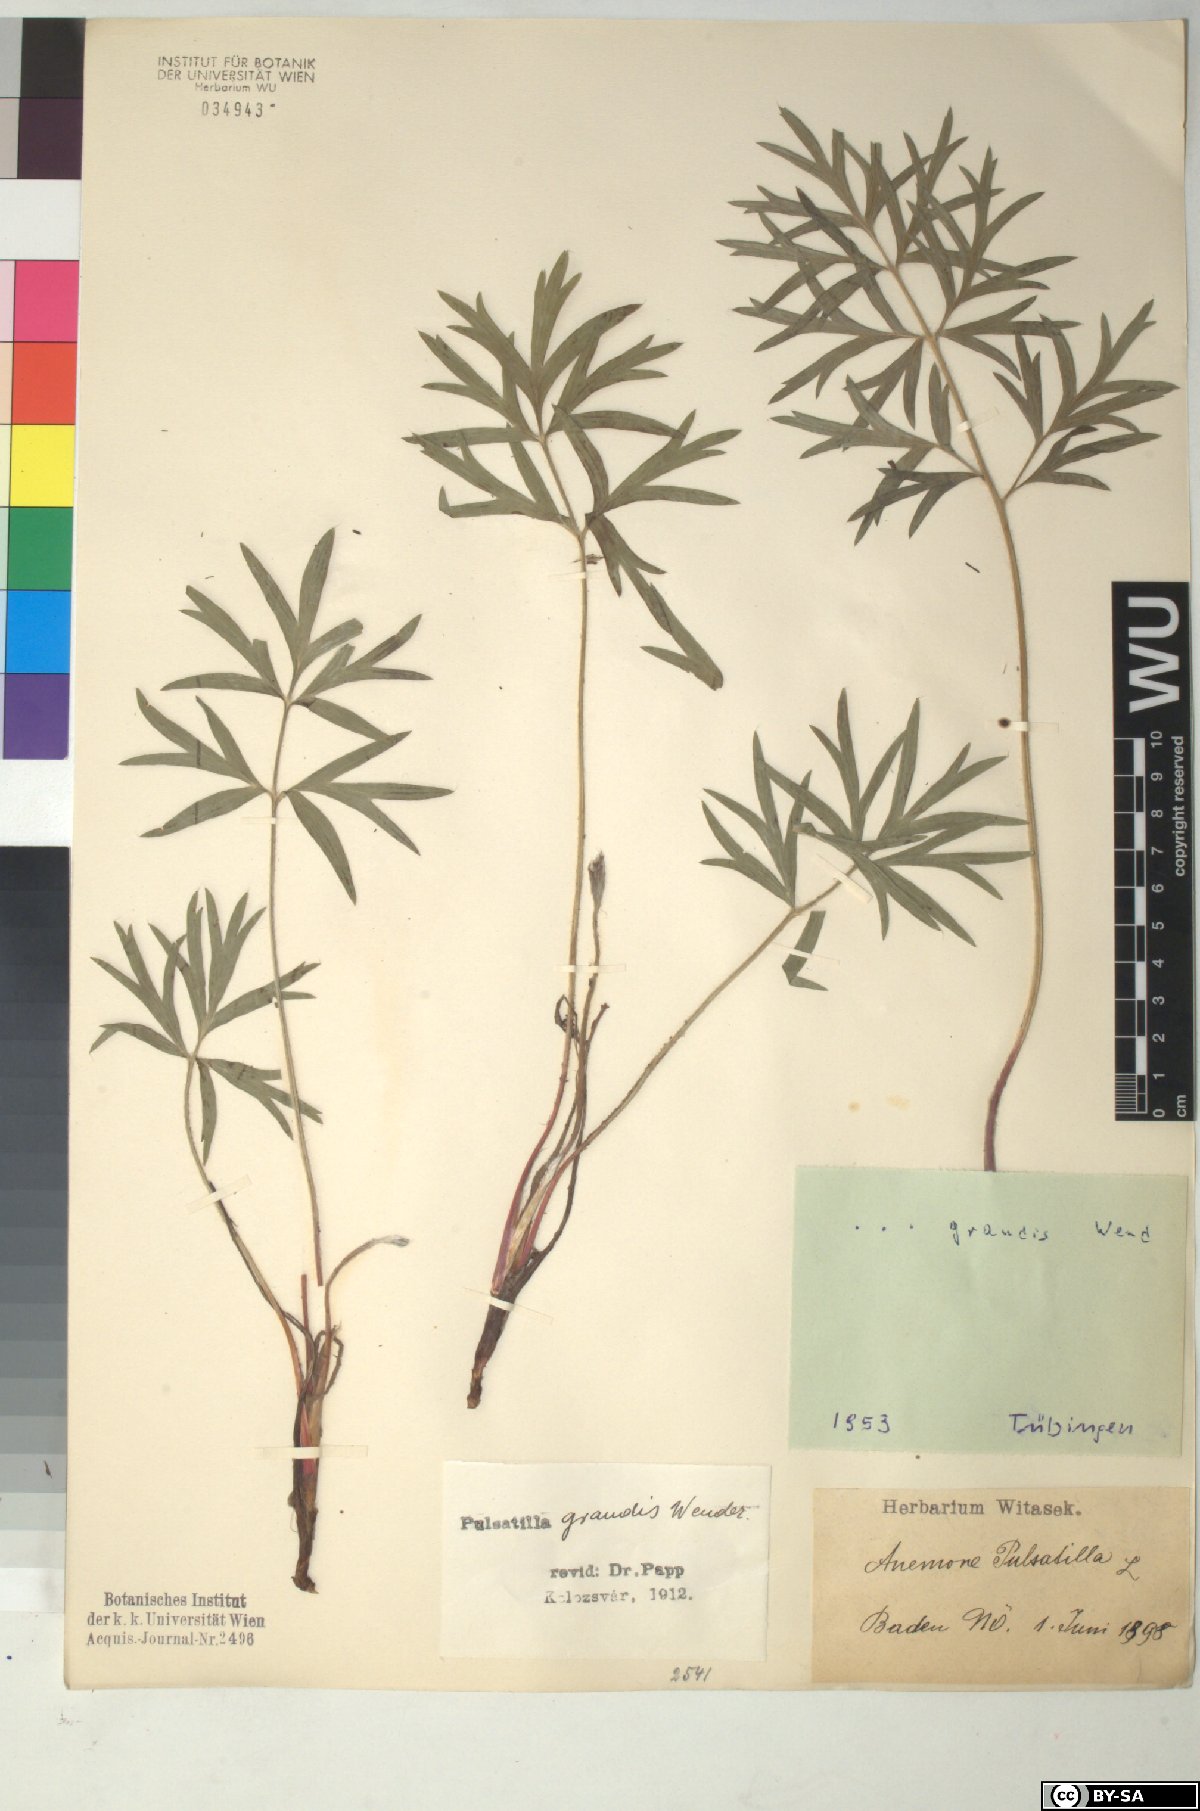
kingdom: Plantae
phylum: Tracheophyta
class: Magnoliopsida
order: Ranunculales
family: Ranunculaceae
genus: Pulsatilla
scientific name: Pulsatilla grandis
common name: Greater pasque flower
